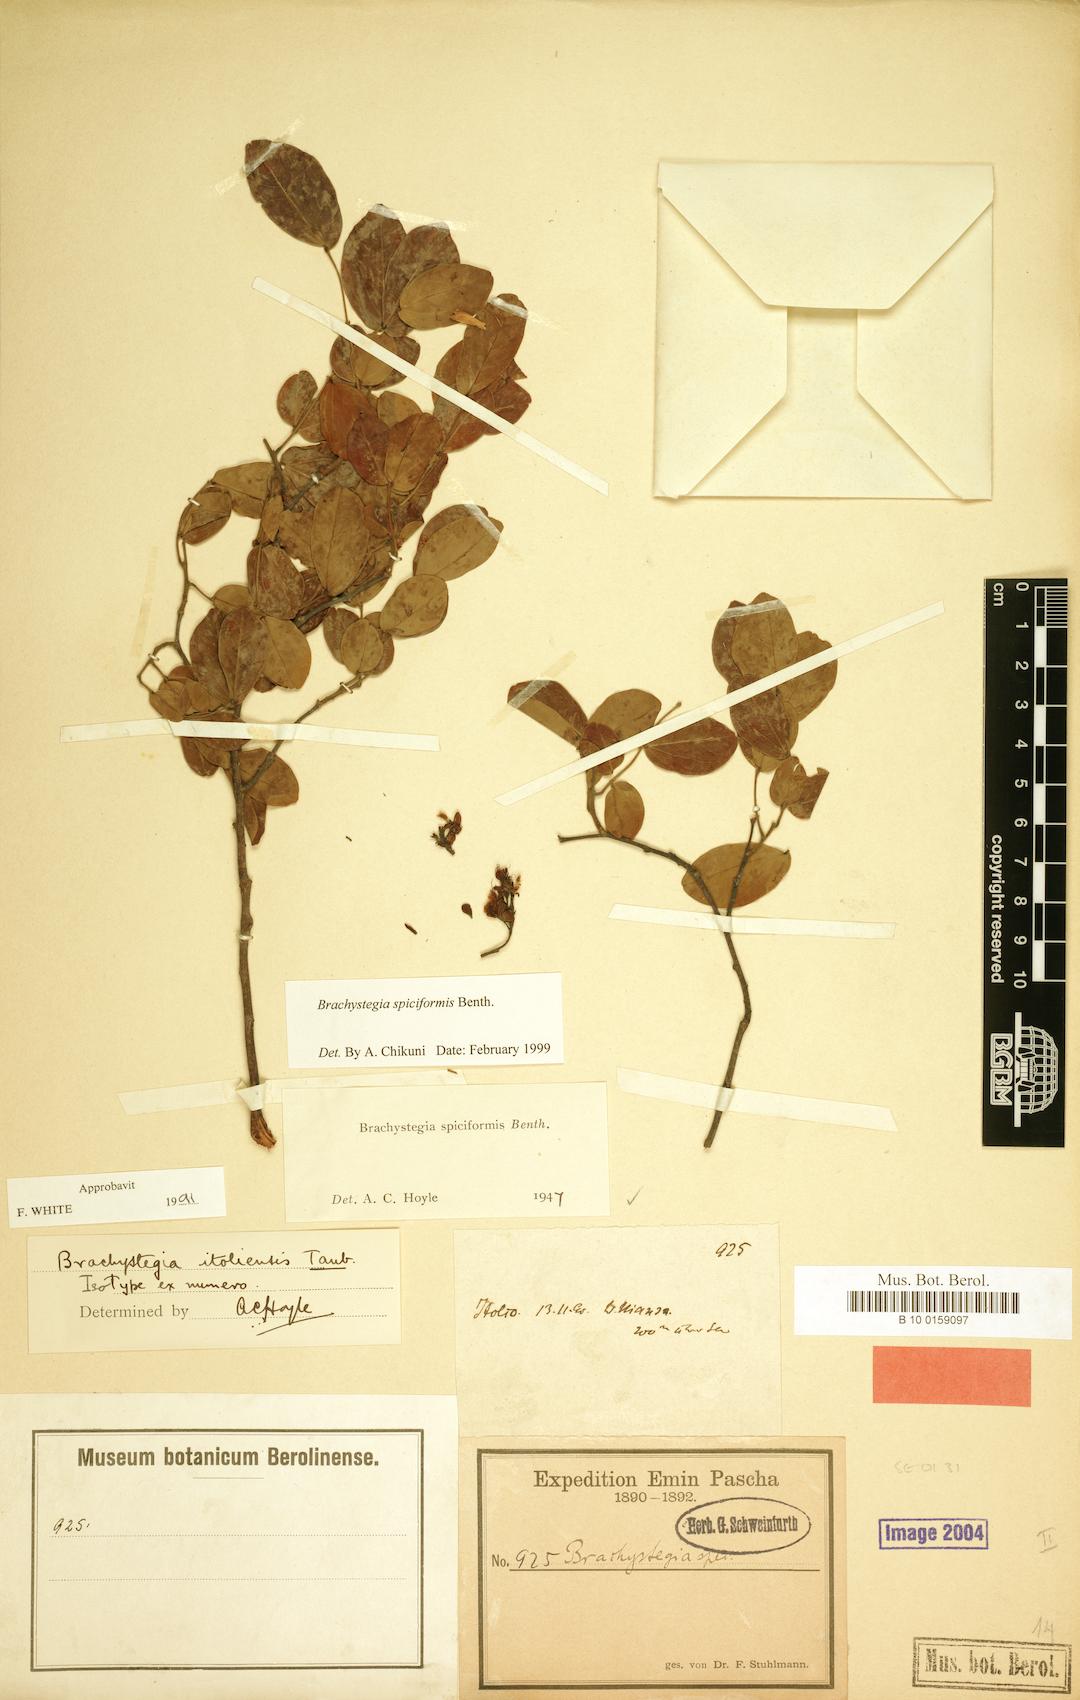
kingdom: Plantae
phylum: Tracheophyta
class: Magnoliopsida
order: Fabales
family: Fabaceae
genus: Brachystegia
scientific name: Brachystegia spiciformis
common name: Zebrawood
